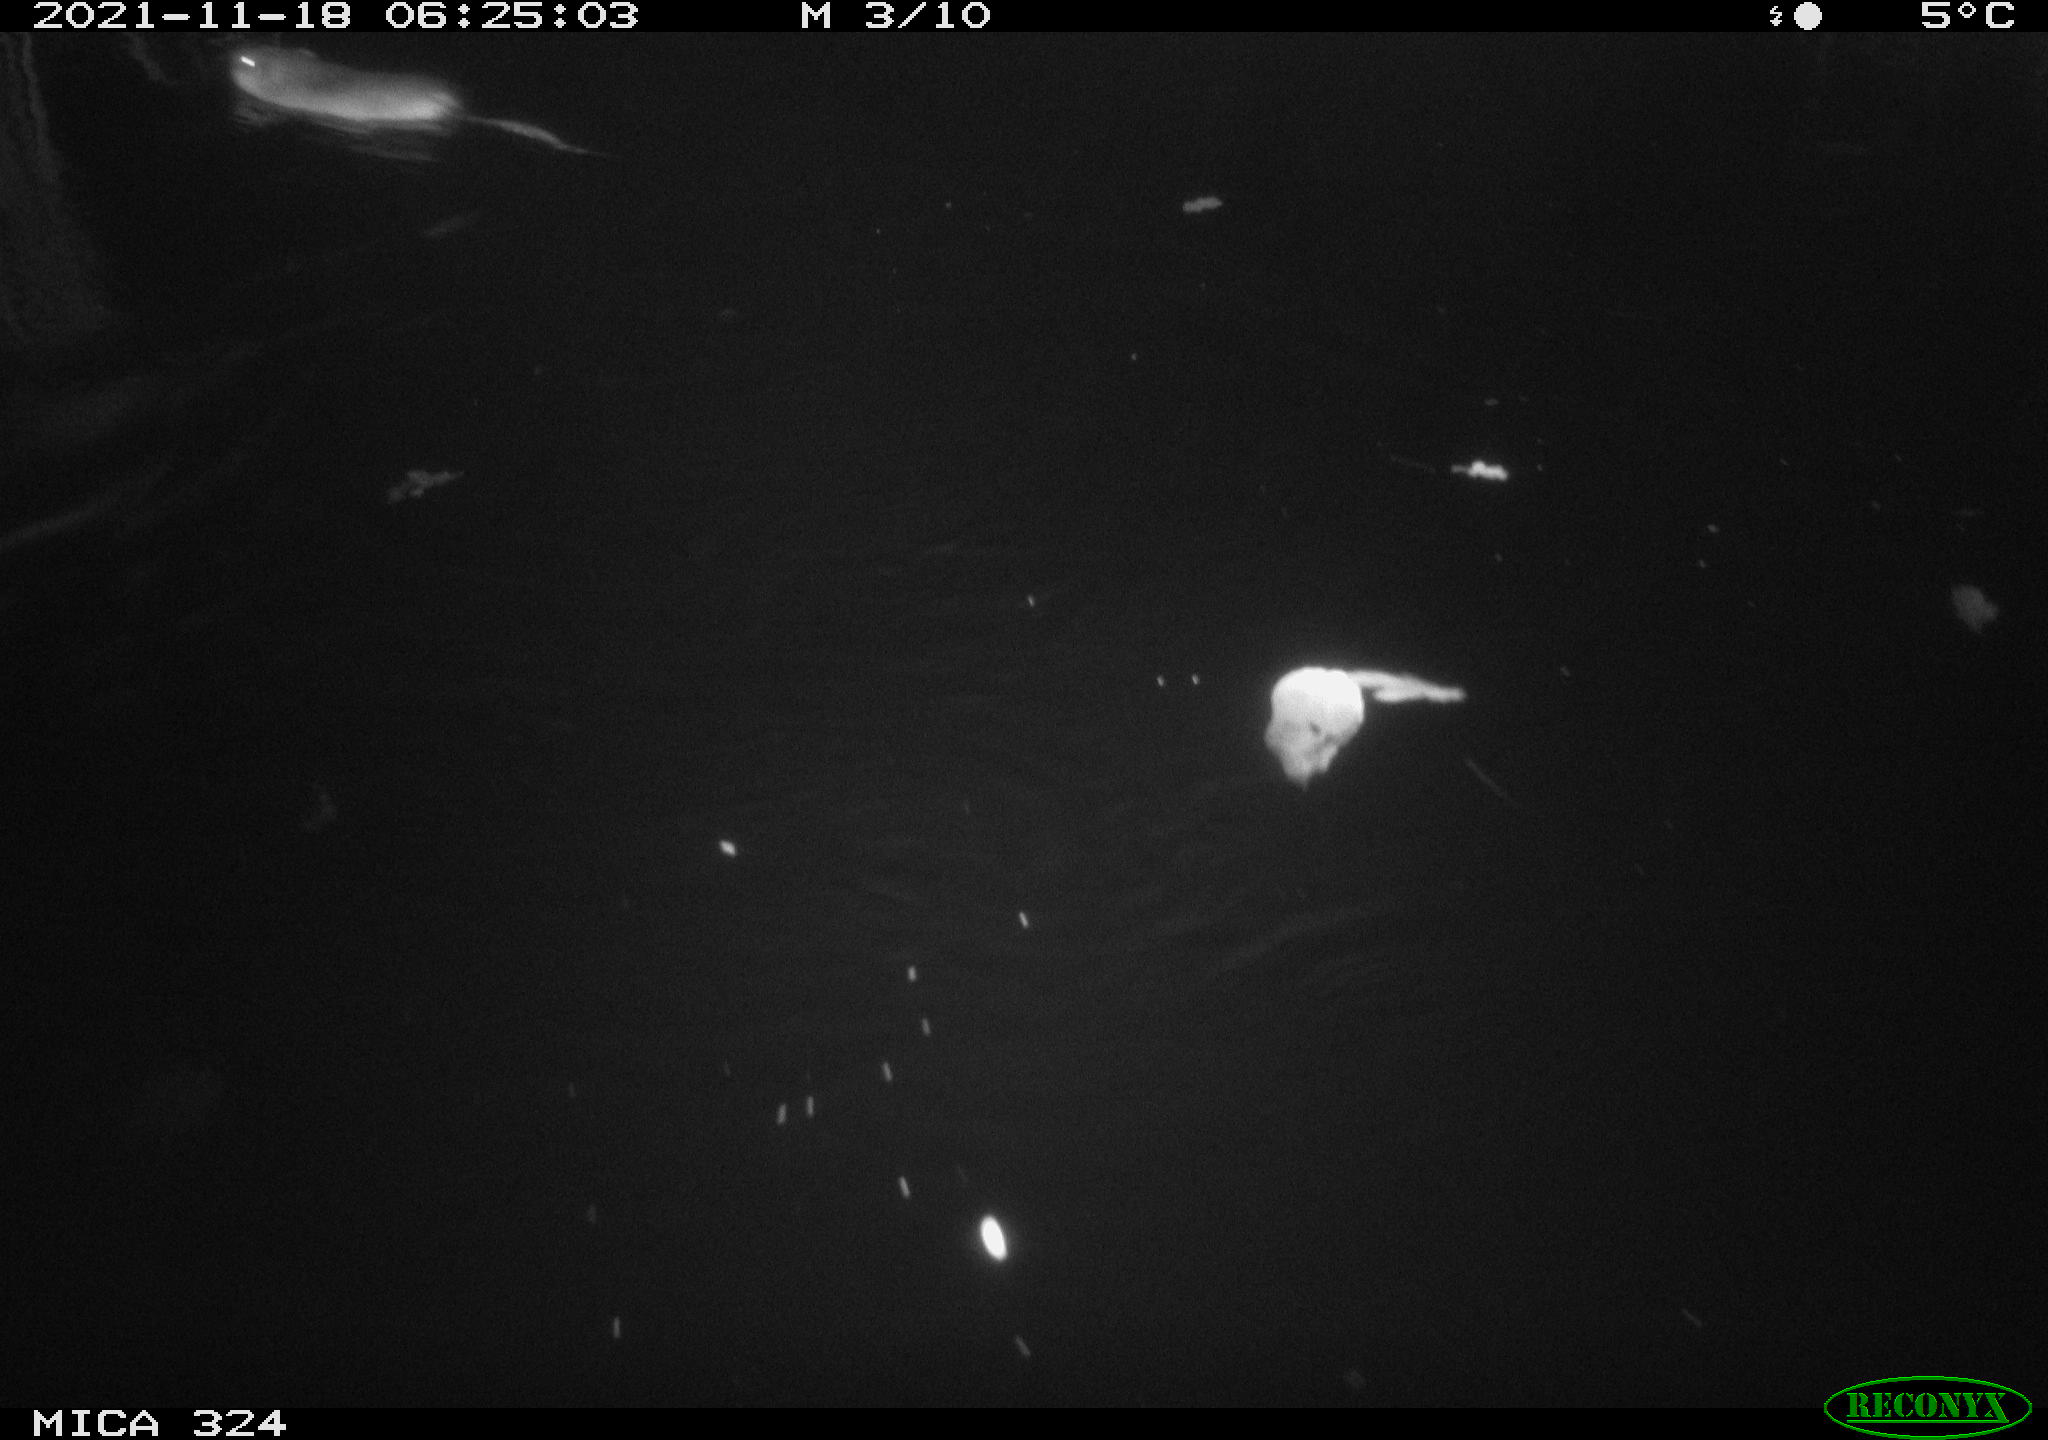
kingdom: Animalia
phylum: Chordata
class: Mammalia
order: Rodentia
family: Cricetidae
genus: Ondatra
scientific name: Ondatra zibethicus
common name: Muskrat
